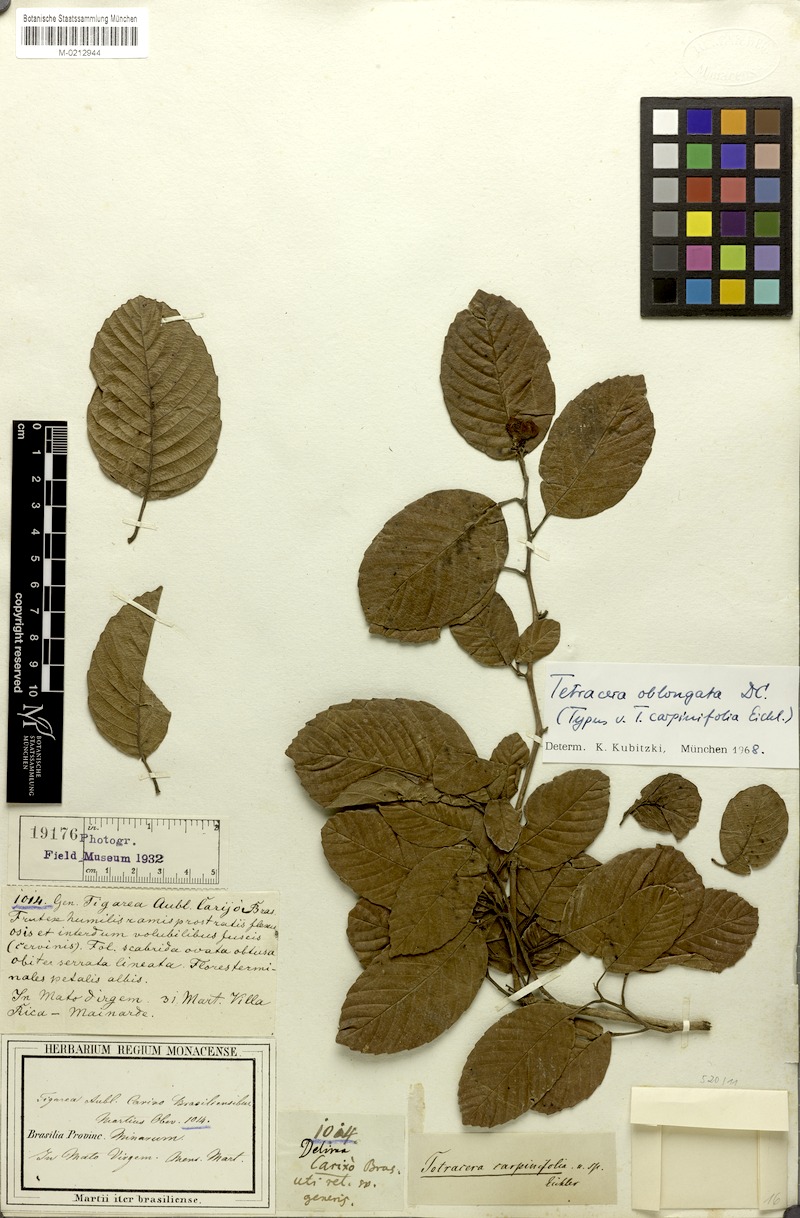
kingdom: Plantae
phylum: Tracheophyta
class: Magnoliopsida
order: Dilleniales
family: Dilleniaceae
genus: Tetracera
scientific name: Tetracera oblongata
